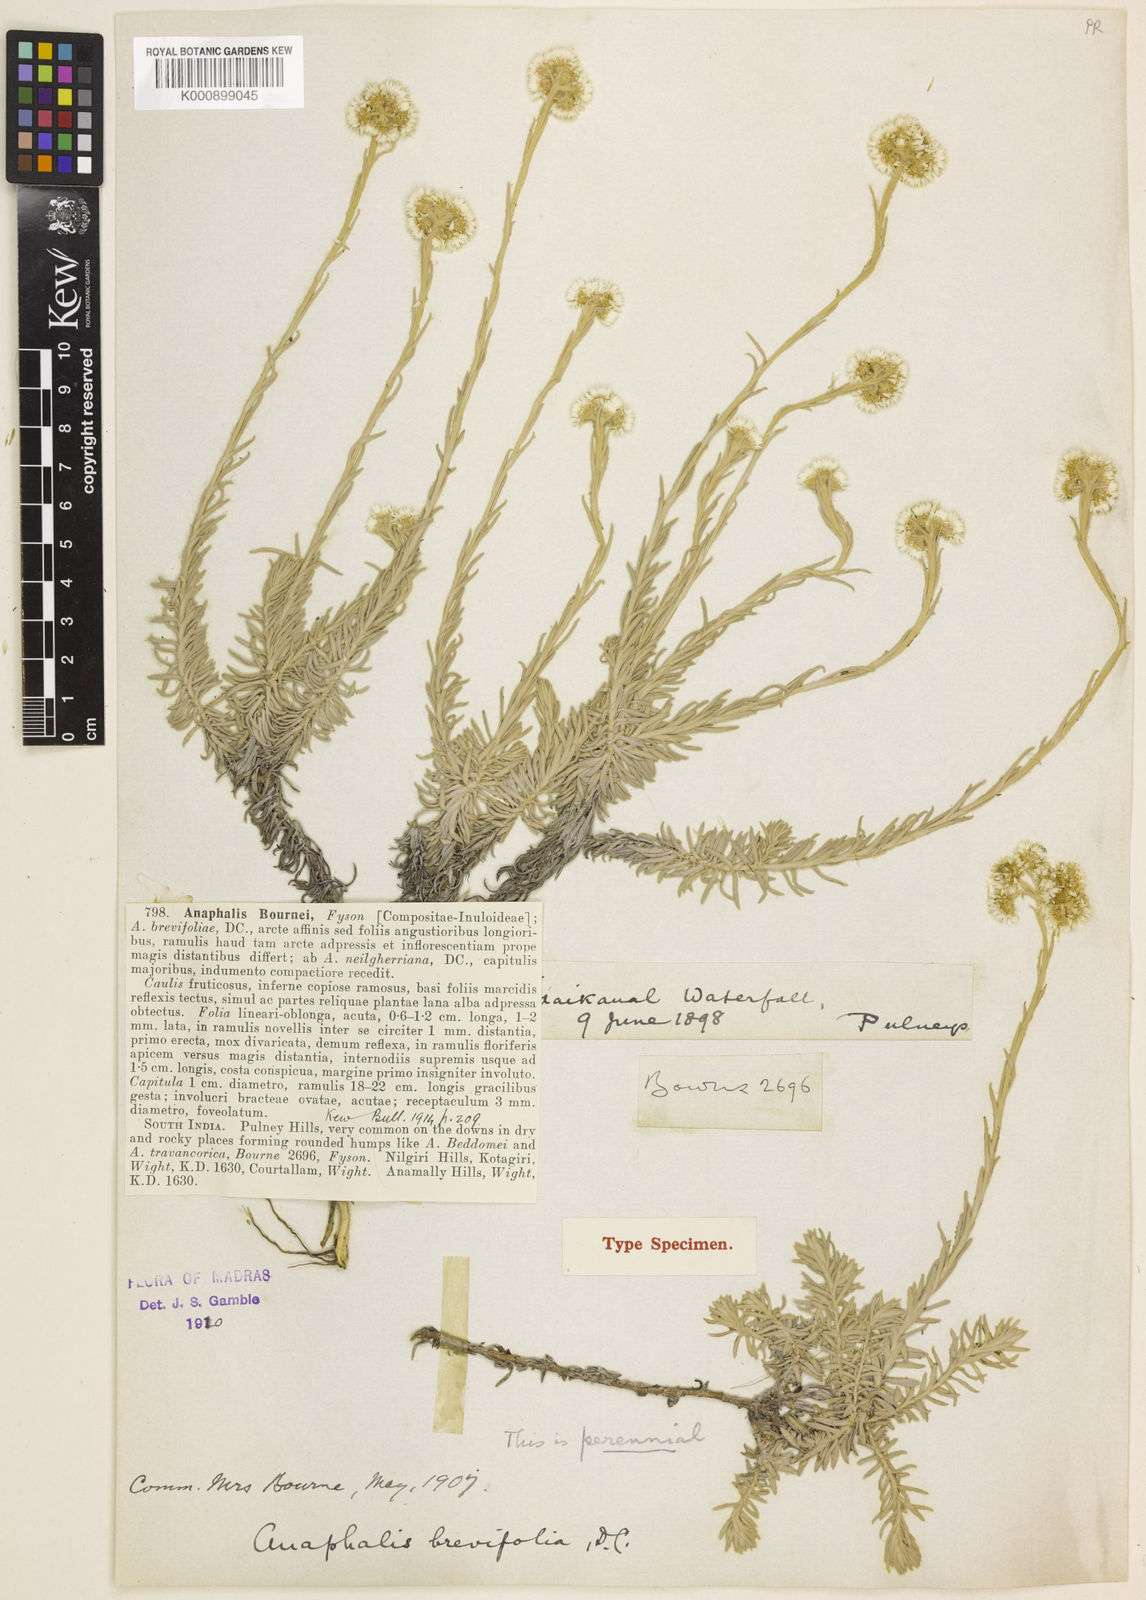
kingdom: Plantae
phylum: Tracheophyta
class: Magnoliopsida
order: Asterales
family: Asteraceae
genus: Anaphalis
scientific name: Anaphalis bournei
